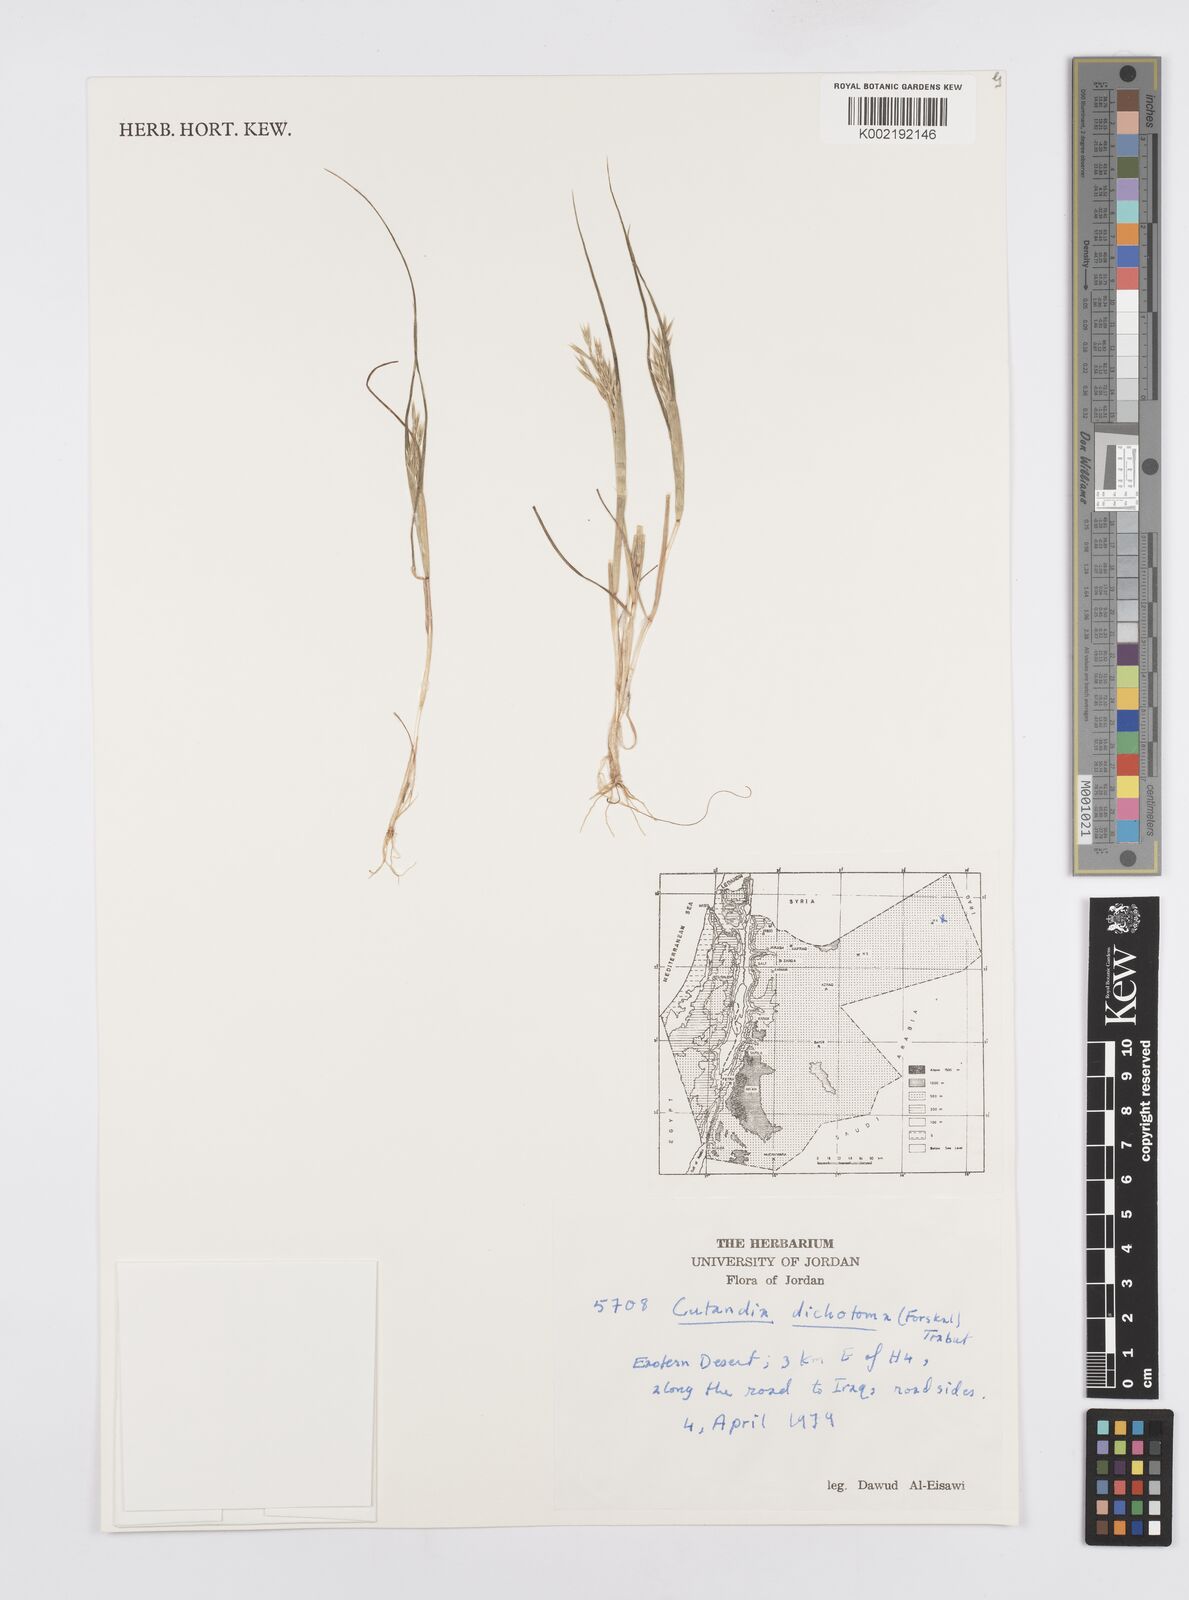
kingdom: Plantae
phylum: Tracheophyta
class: Liliopsida
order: Poales
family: Poaceae
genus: Cutandia
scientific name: Cutandia dichotoma
